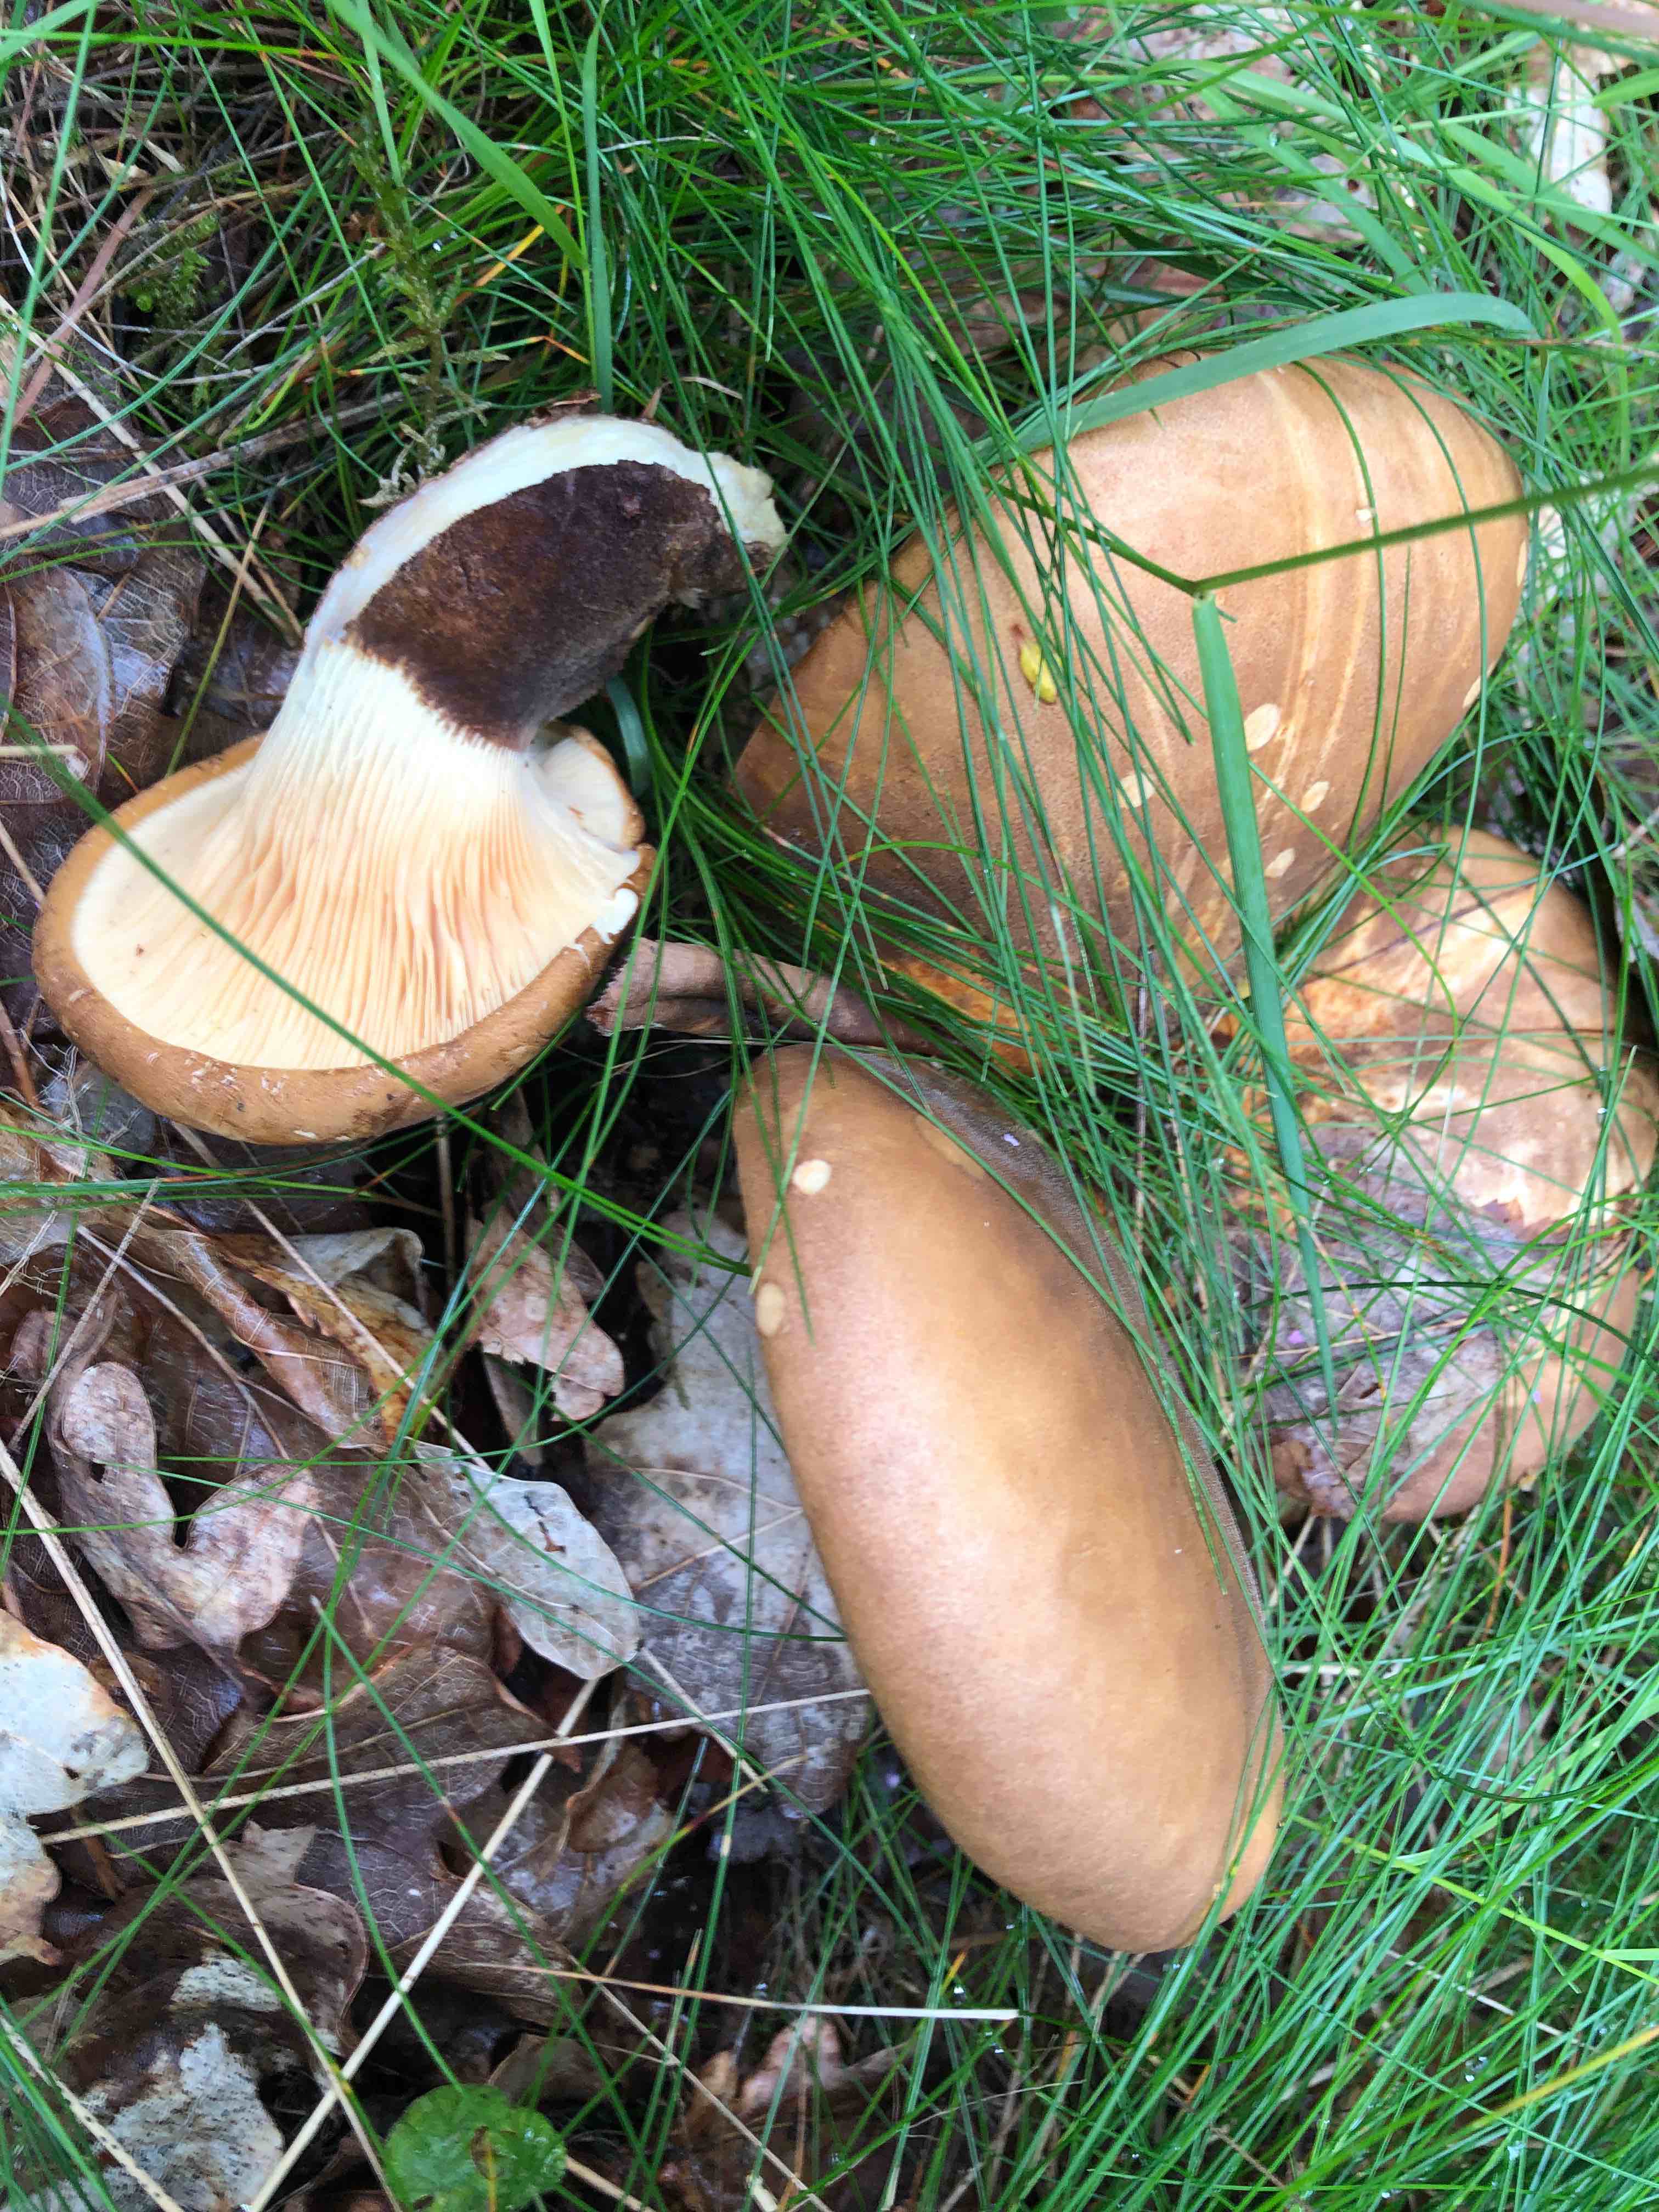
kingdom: Fungi
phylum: Basidiomycota
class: Agaricomycetes
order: Boletales
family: Tapinellaceae
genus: Tapinella
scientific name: Tapinella atrotomentosa
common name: sortfiltet viftesvamp
